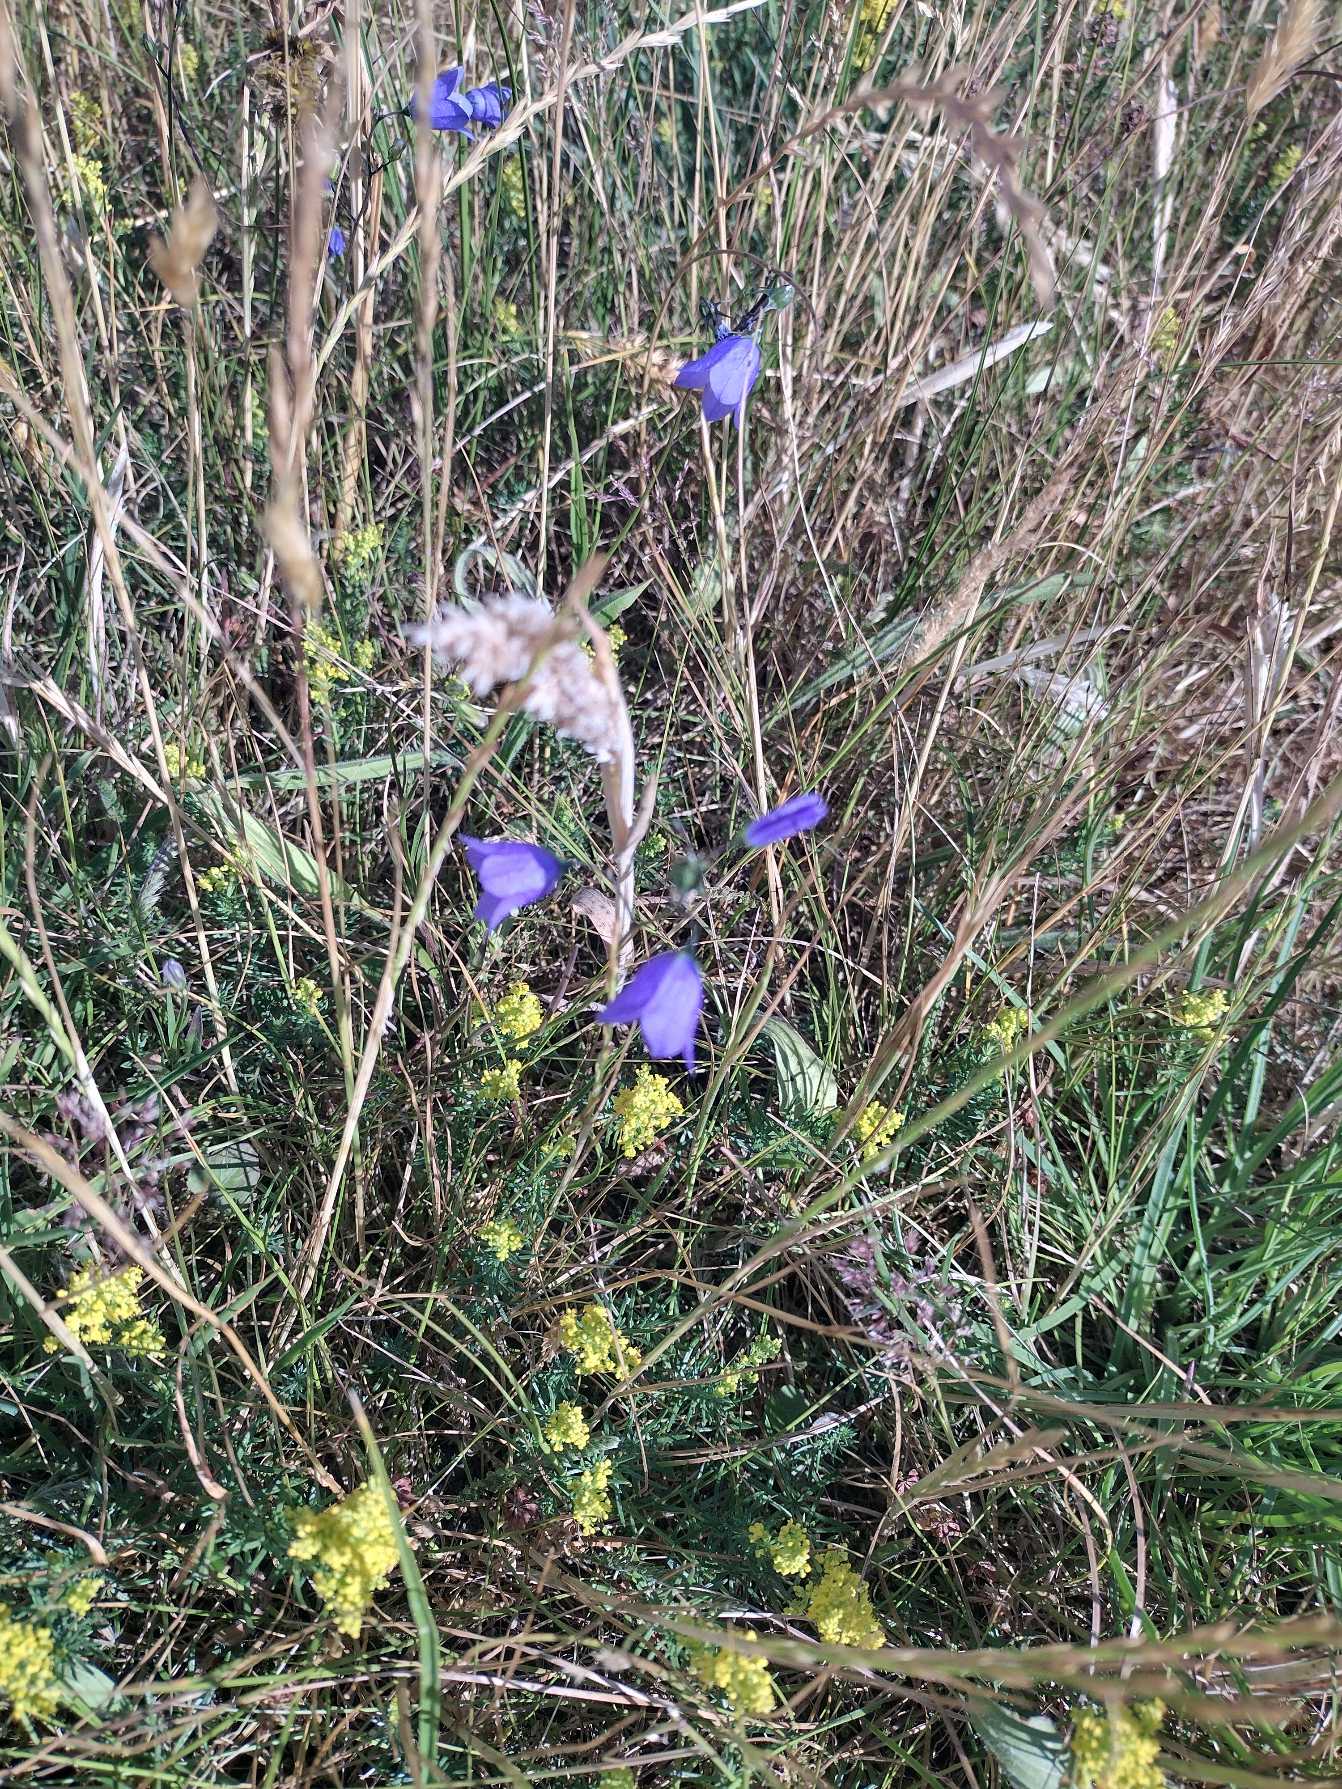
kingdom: Plantae
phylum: Tracheophyta
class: Magnoliopsida
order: Asterales
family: Campanulaceae
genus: Campanula
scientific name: Campanula rotundifolia
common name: Liden klokke
